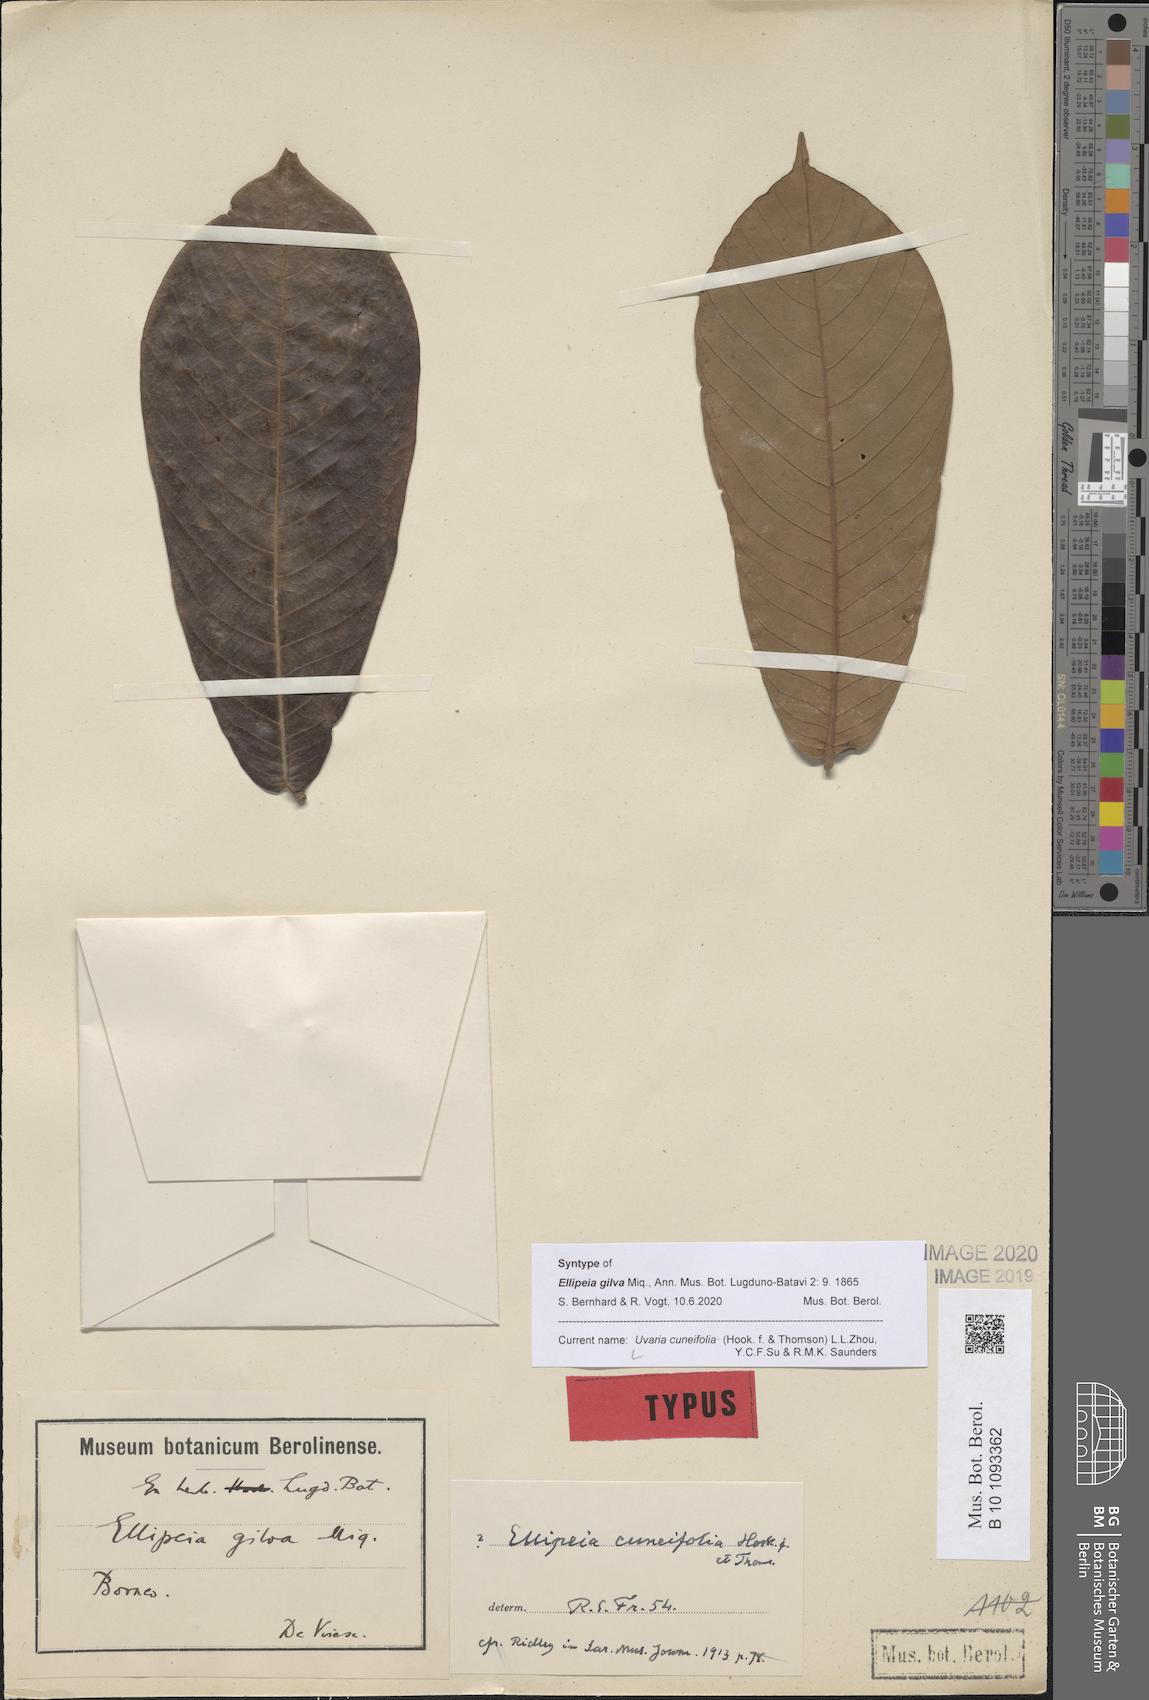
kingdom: Plantae
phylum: Tracheophyta
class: Magnoliopsida
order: Magnoliales
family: Annonaceae
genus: Uvaria
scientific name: Uvaria cuneifolia
